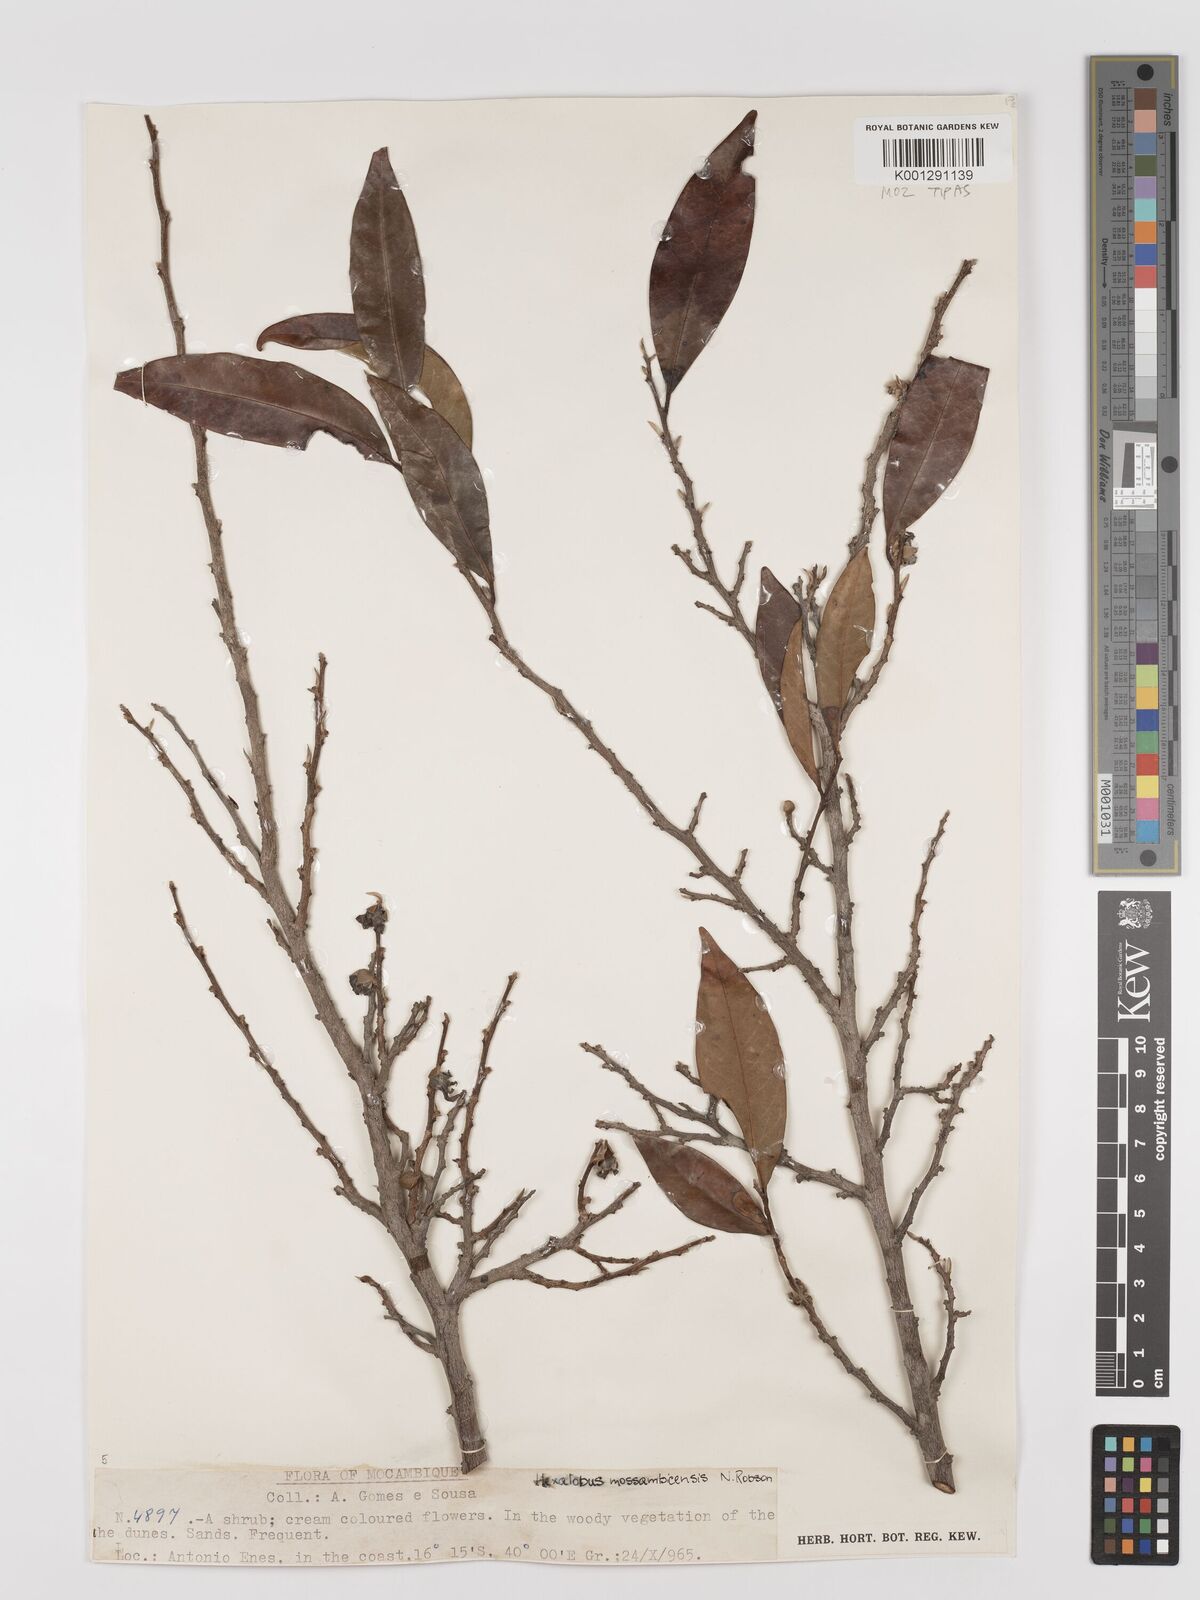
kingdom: Plantae
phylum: Tracheophyta
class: Magnoliopsida
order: Magnoliales
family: Annonaceae
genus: Hexalobus
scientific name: Hexalobus mossambicensis
